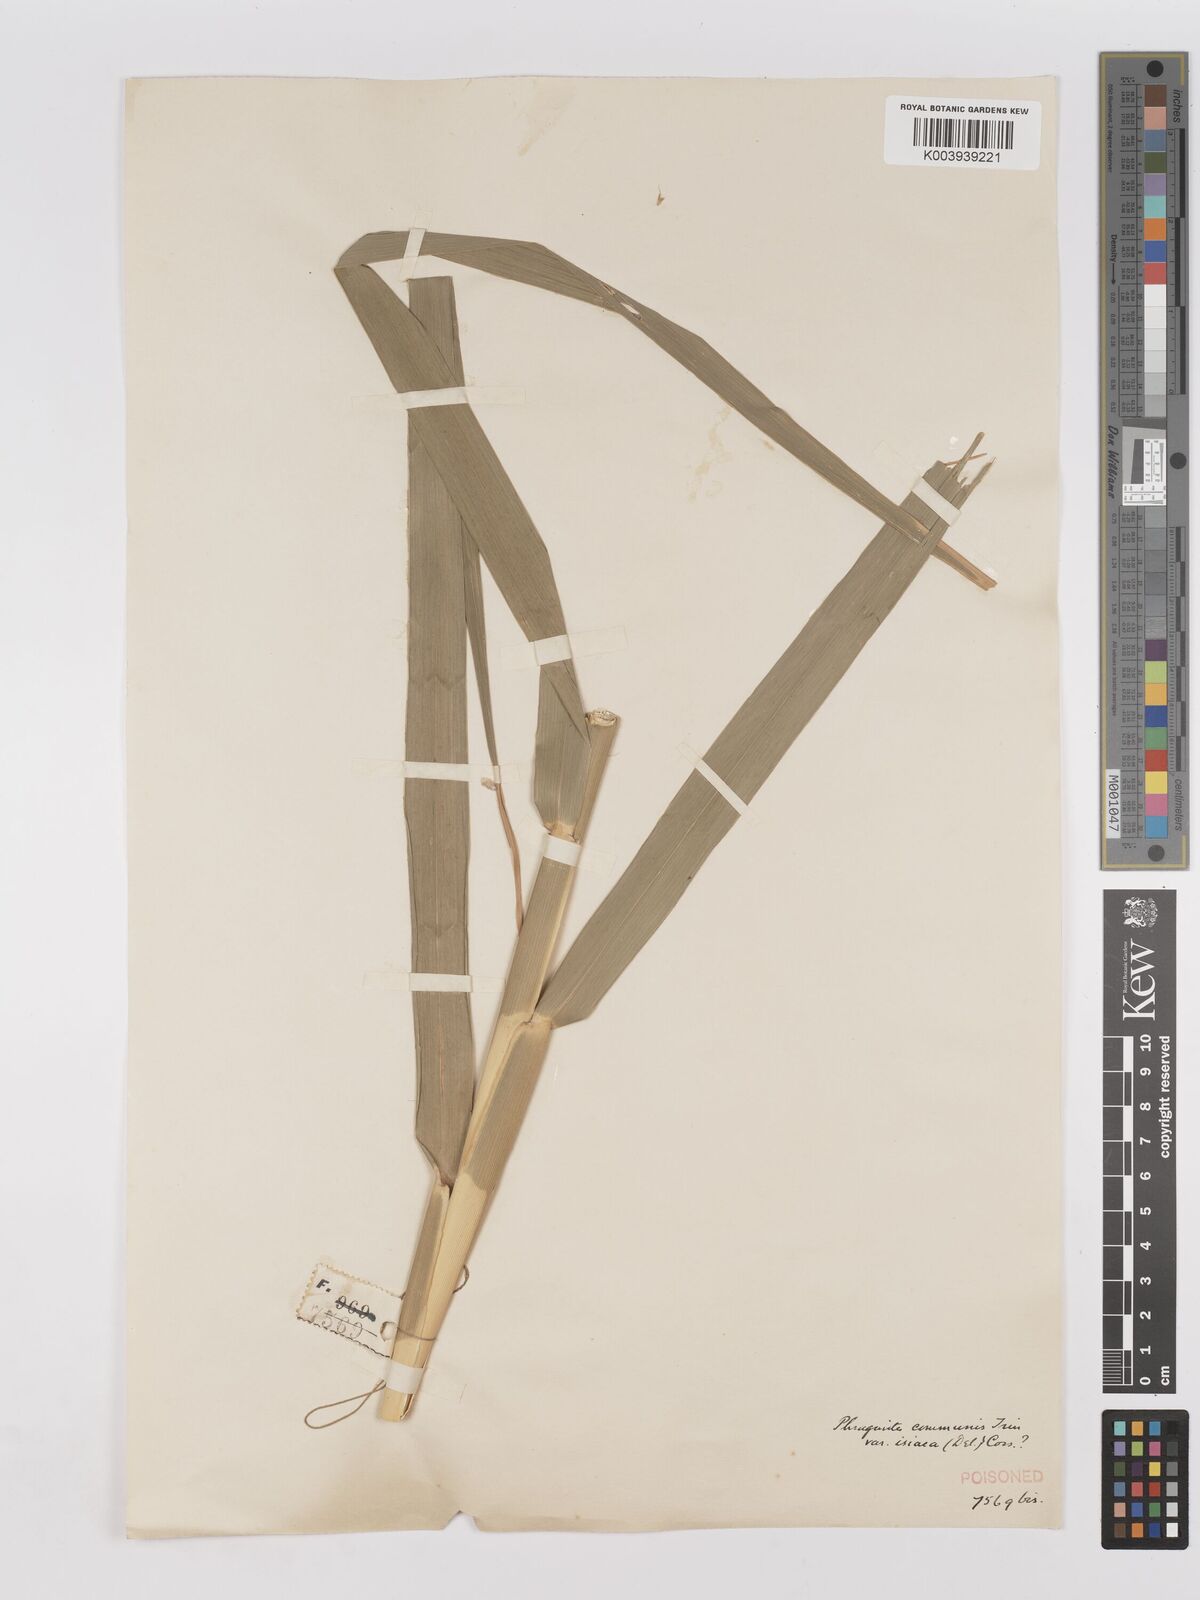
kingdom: Plantae
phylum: Tracheophyta
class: Liliopsida
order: Poales
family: Poaceae
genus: Phragmites
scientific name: Phragmites mauritianus
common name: Reed grass
